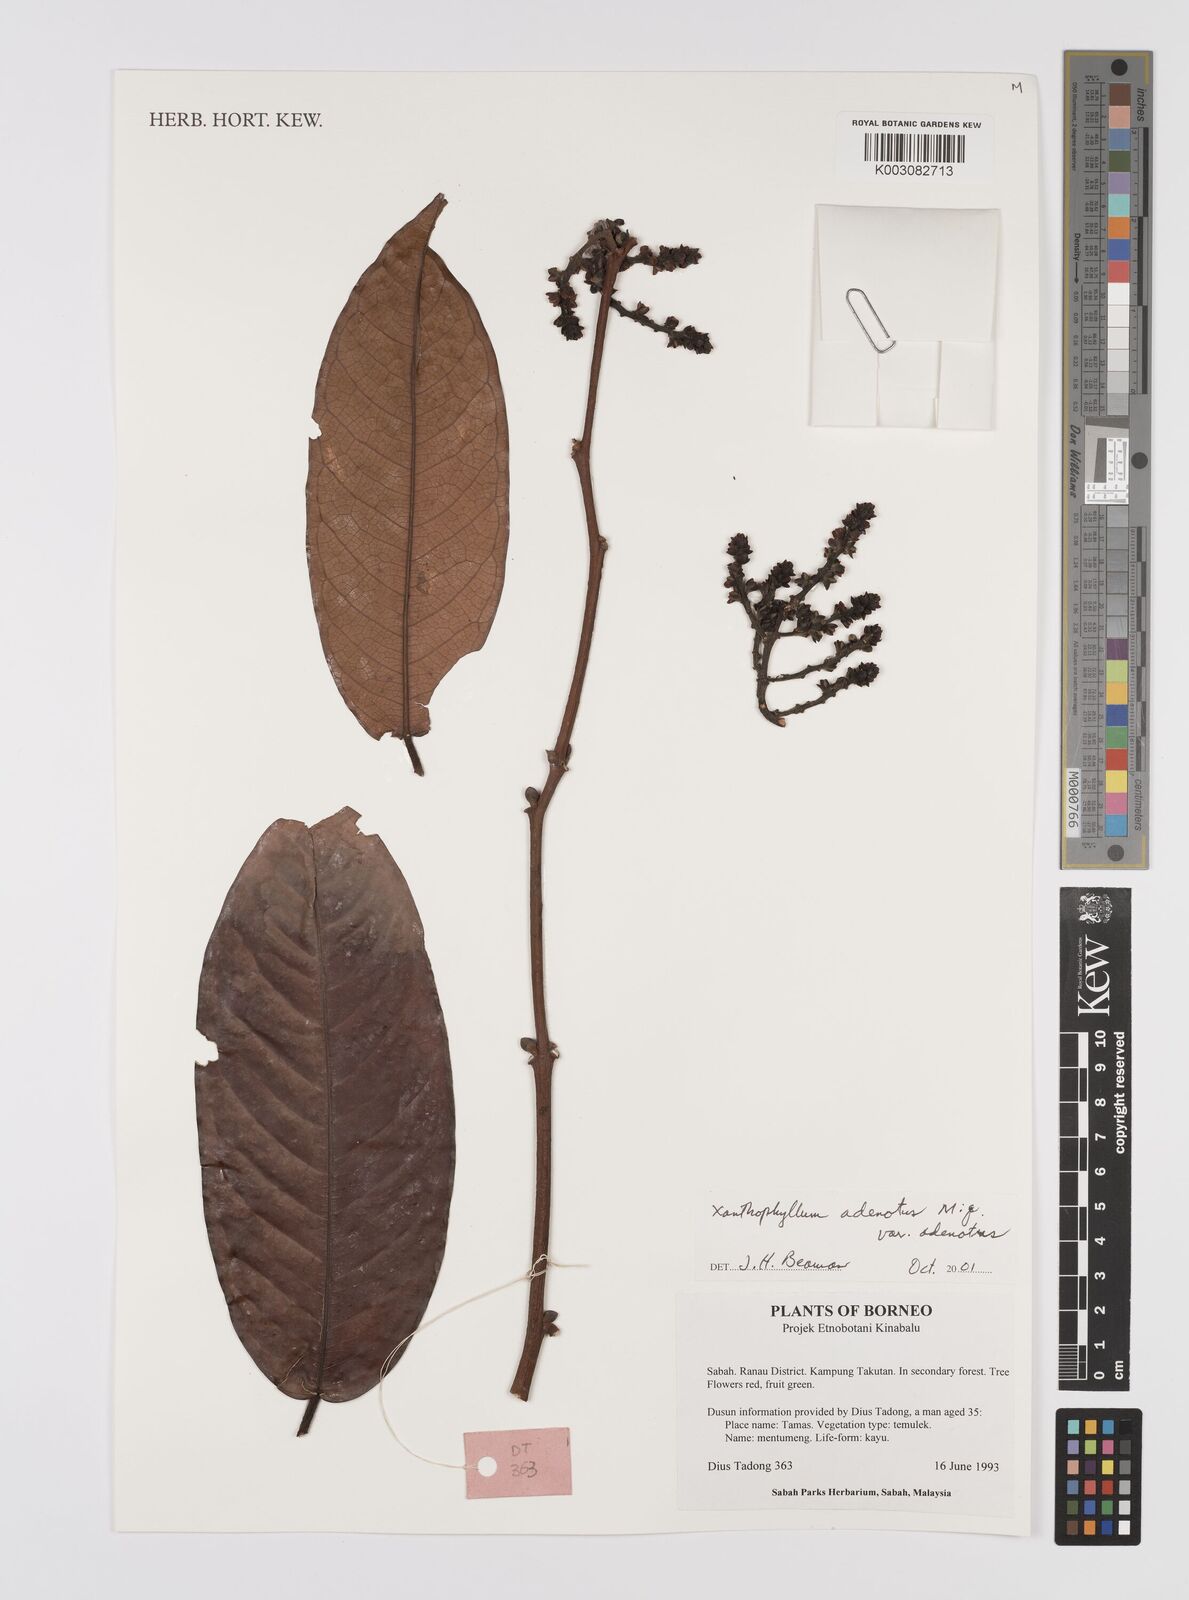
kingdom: Plantae
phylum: Tracheophyta
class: Magnoliopsida
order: Fabales
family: Polygalaceae
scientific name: Polygalaceae
